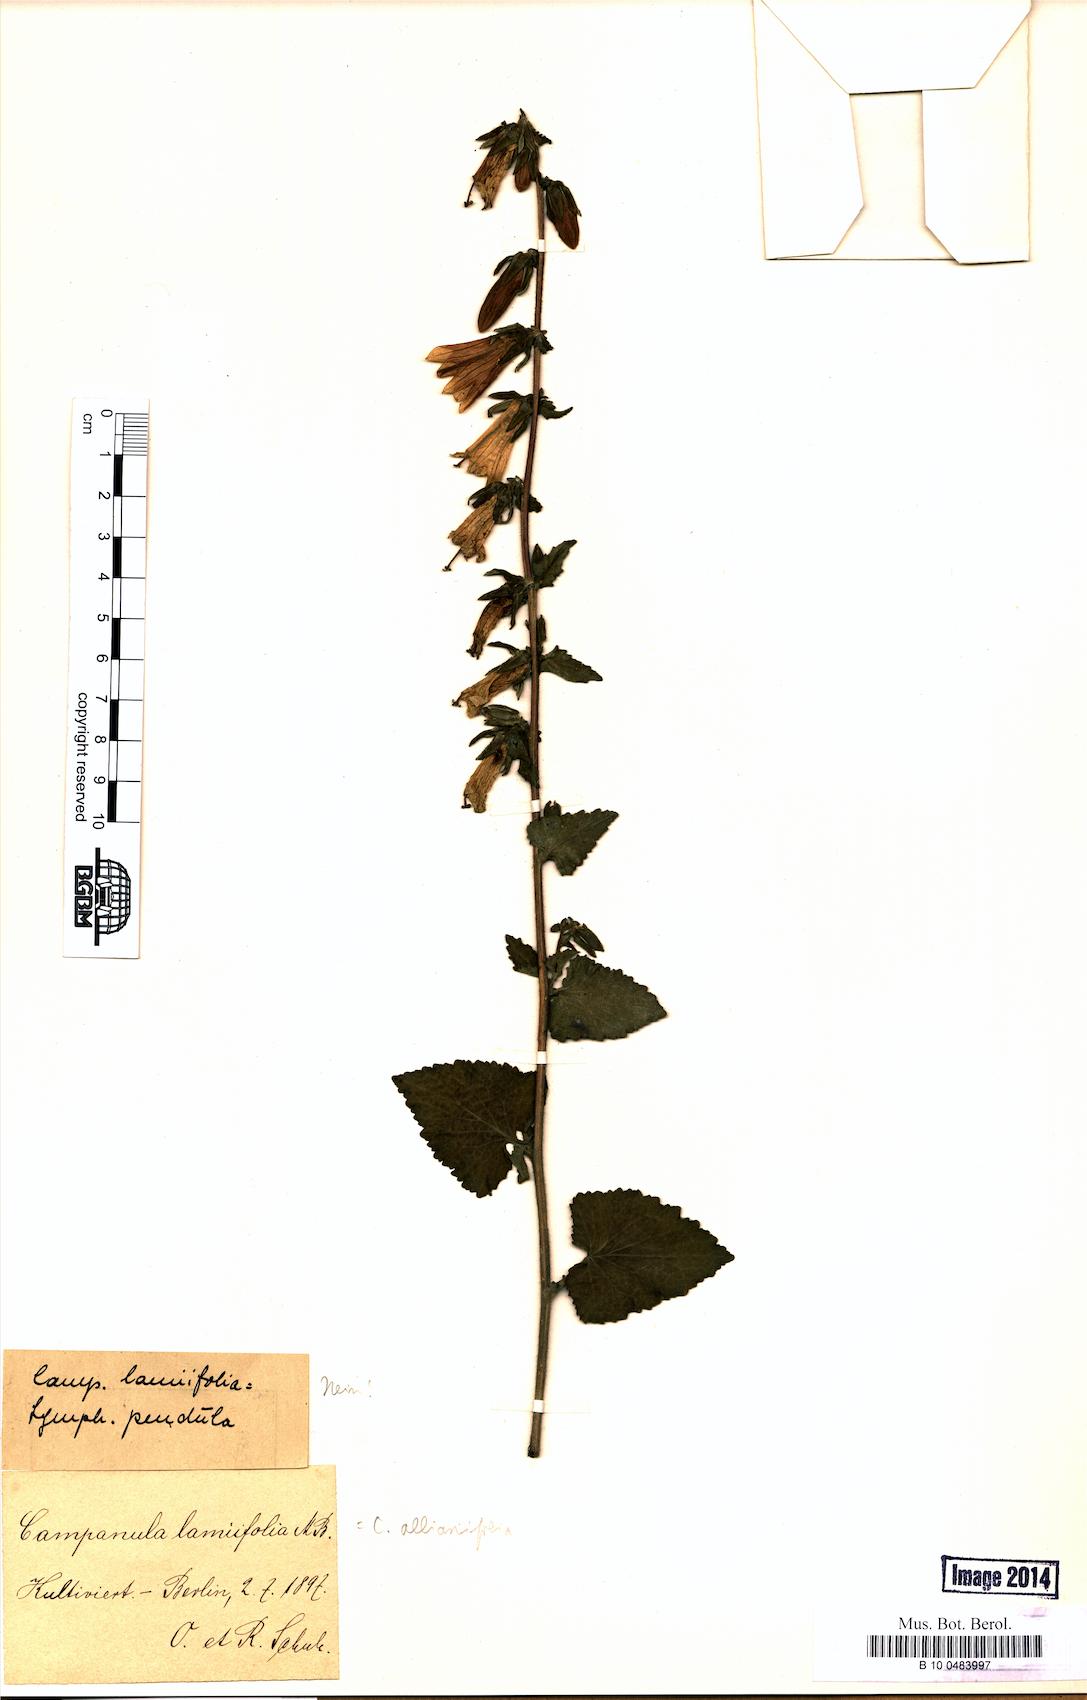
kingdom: Plantae
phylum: Tracheophyta
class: Magnoliopsida
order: Asterales
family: Campanulaceae
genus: Campanula
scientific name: Campanula alliariifolia
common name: Cornish bellflower
